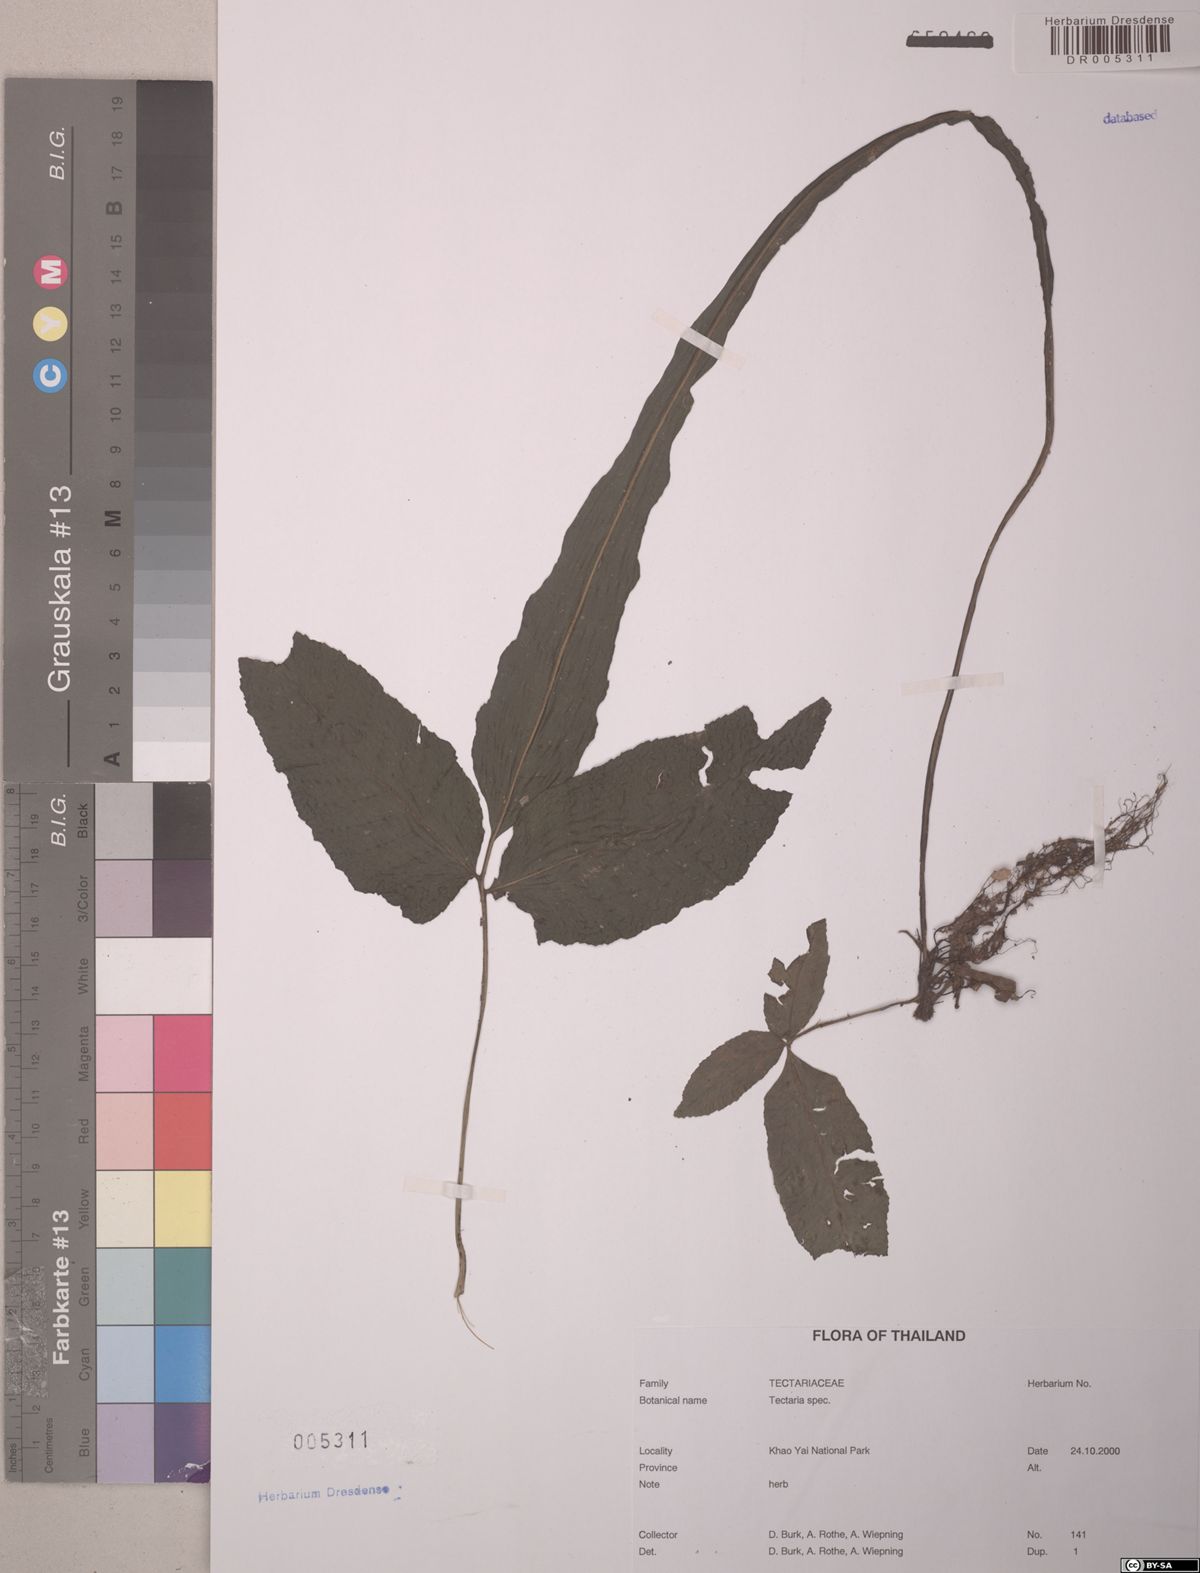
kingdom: Plantae
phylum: Tracheophyta
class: Polypodiopsida
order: Polypodiales
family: Tectariaceae
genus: Tectaria
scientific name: Tectaria
